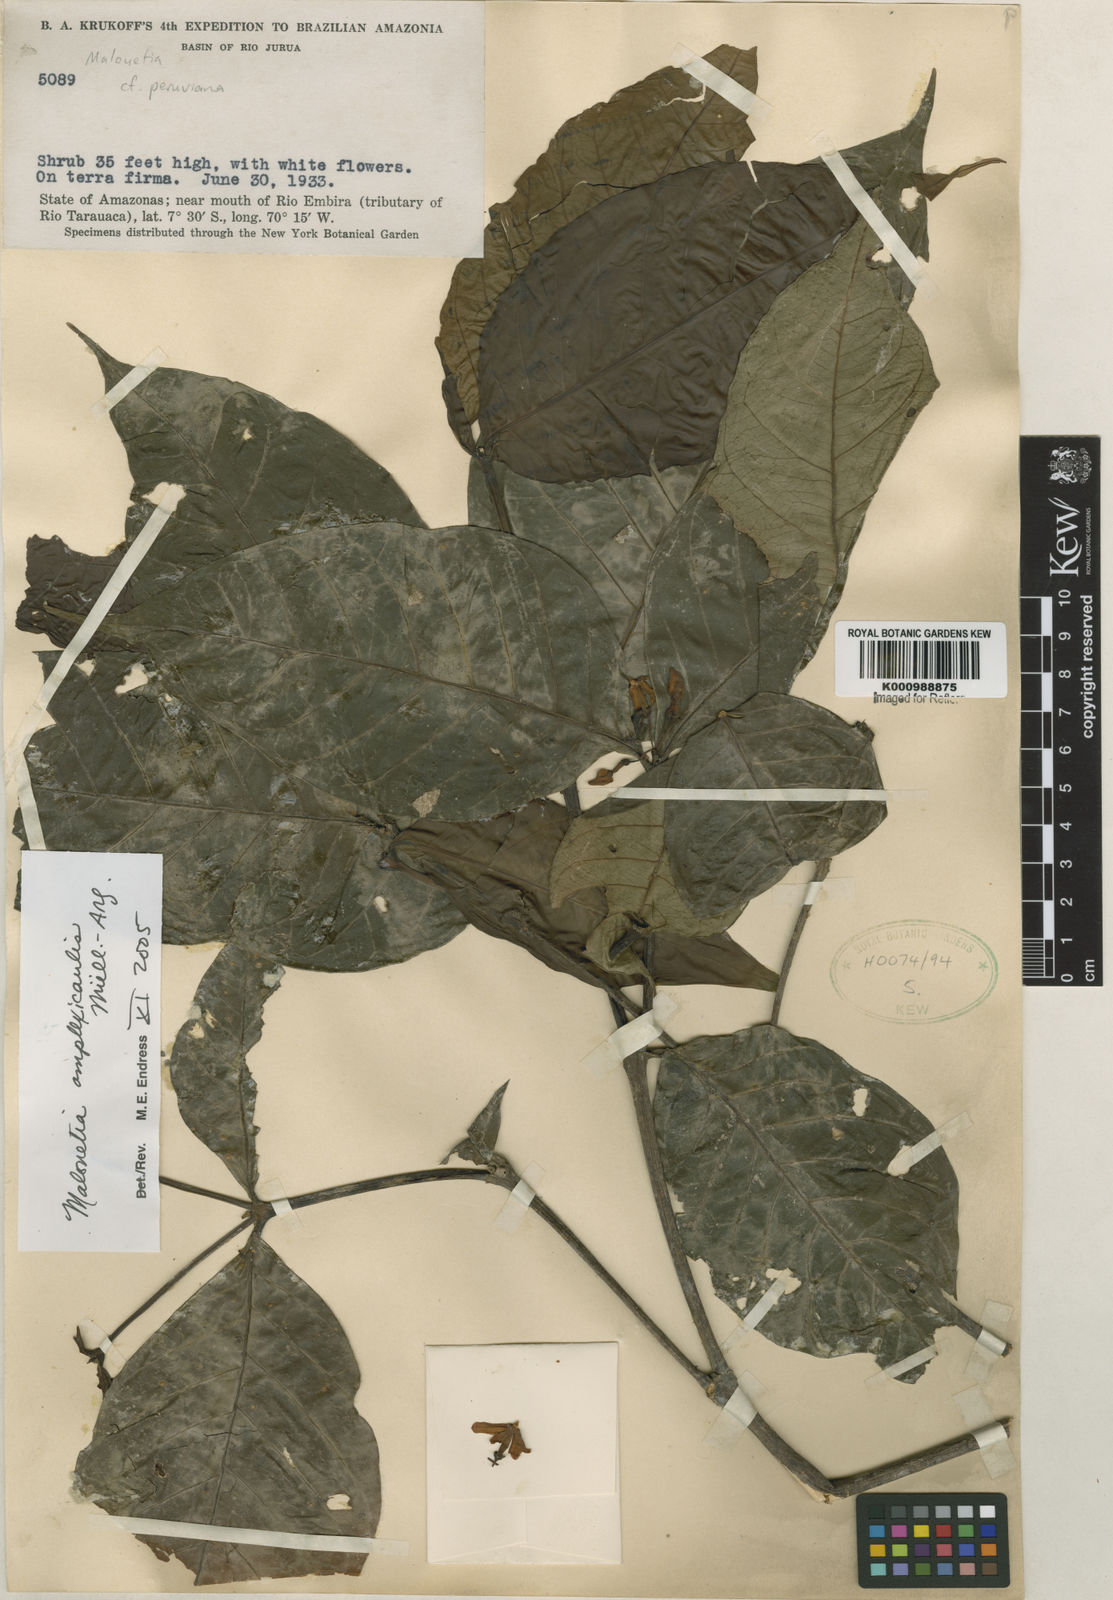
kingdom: Plantae
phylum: Tracheophyta
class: Magnoliopsida
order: Gentianales
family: Apocynaceae
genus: Malouetia
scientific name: Malouetia
